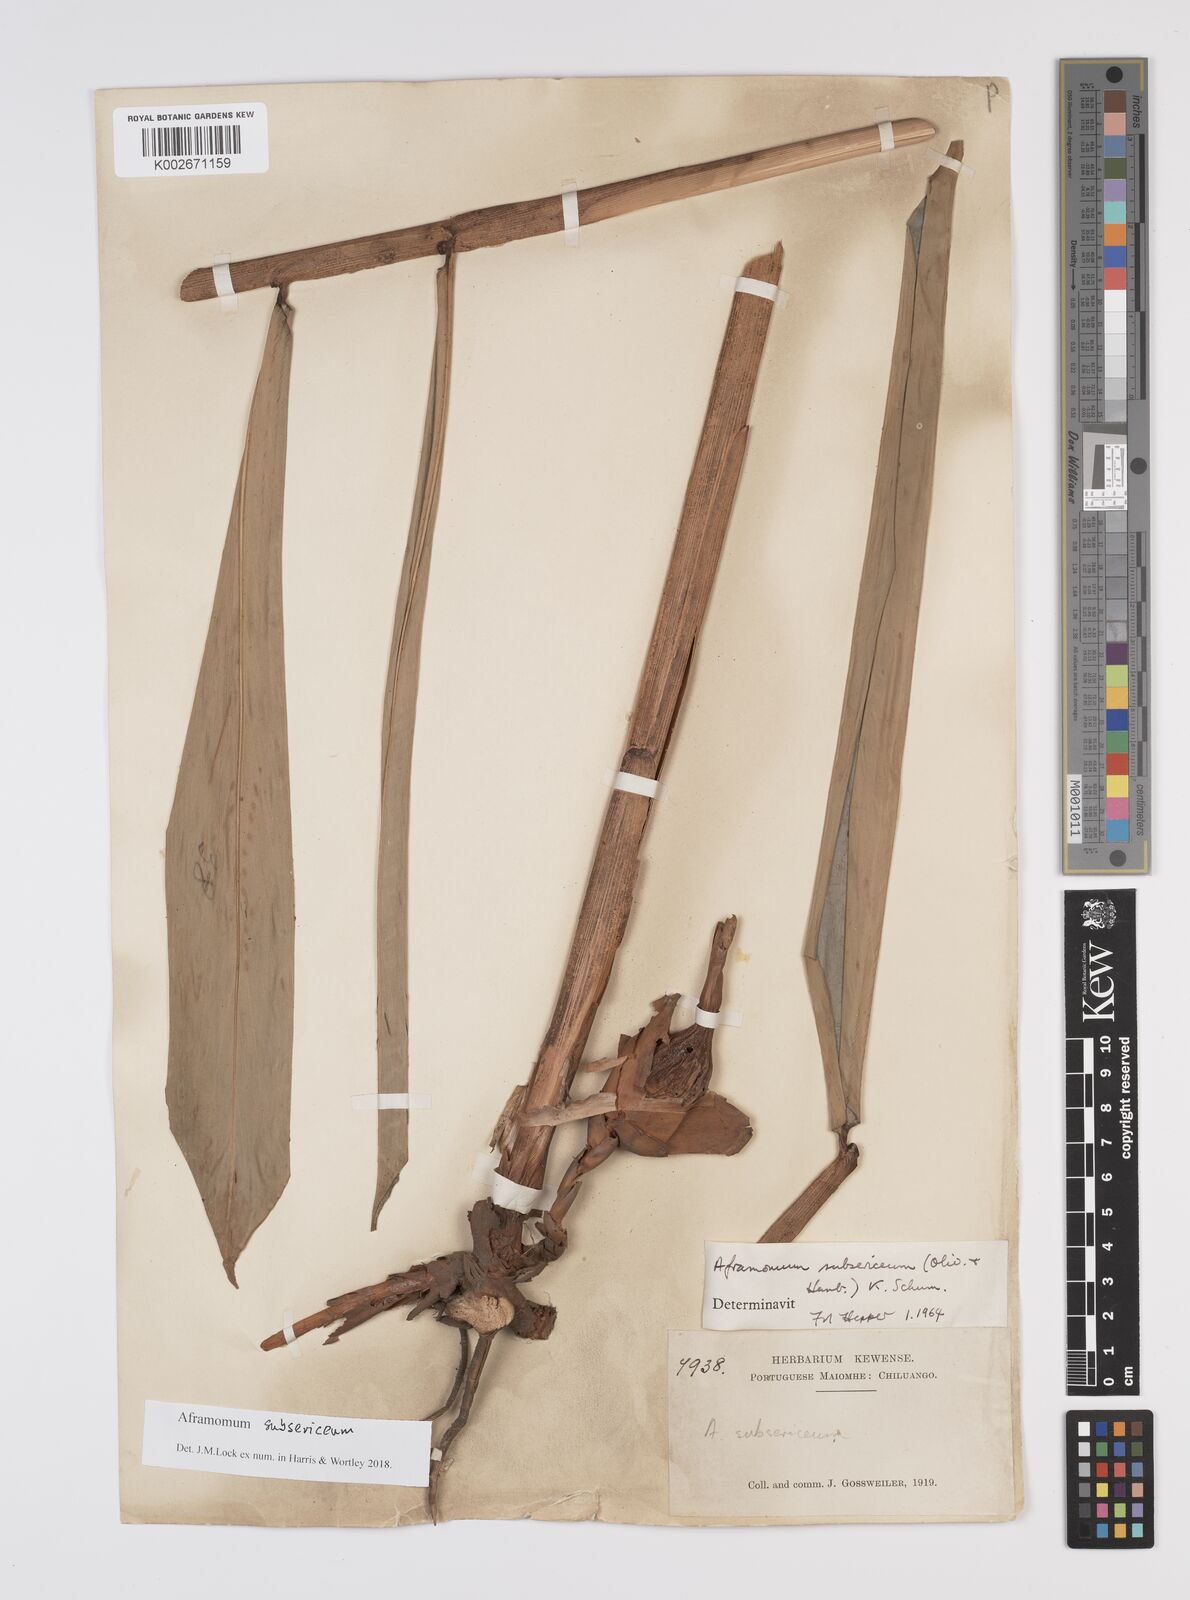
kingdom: Plantae
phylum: Tracheophyta
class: Liliopsida
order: Zingiberales
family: Zingiberaceae
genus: Aframomum
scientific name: Aframomum subsericeum
